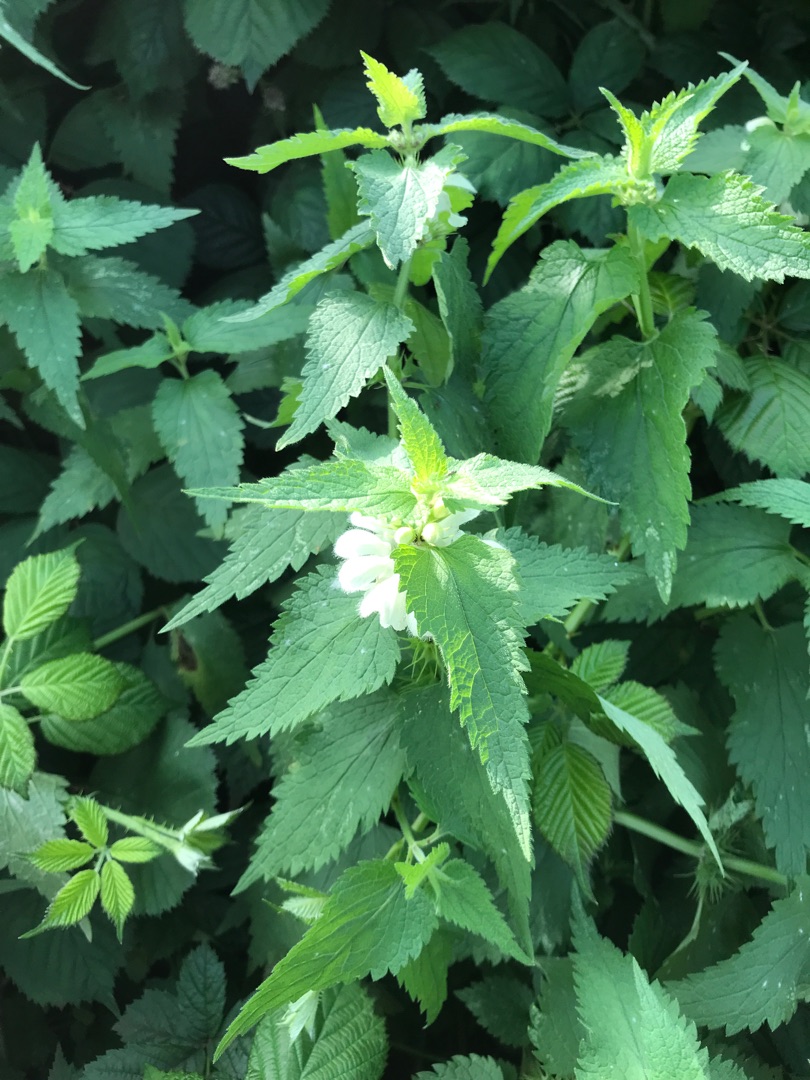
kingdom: Plantae
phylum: Tracheophyta
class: Magnoliopsida
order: Lamiales
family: Lamiaceae
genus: Lamium
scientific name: Lamium album
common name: Døvnælde
